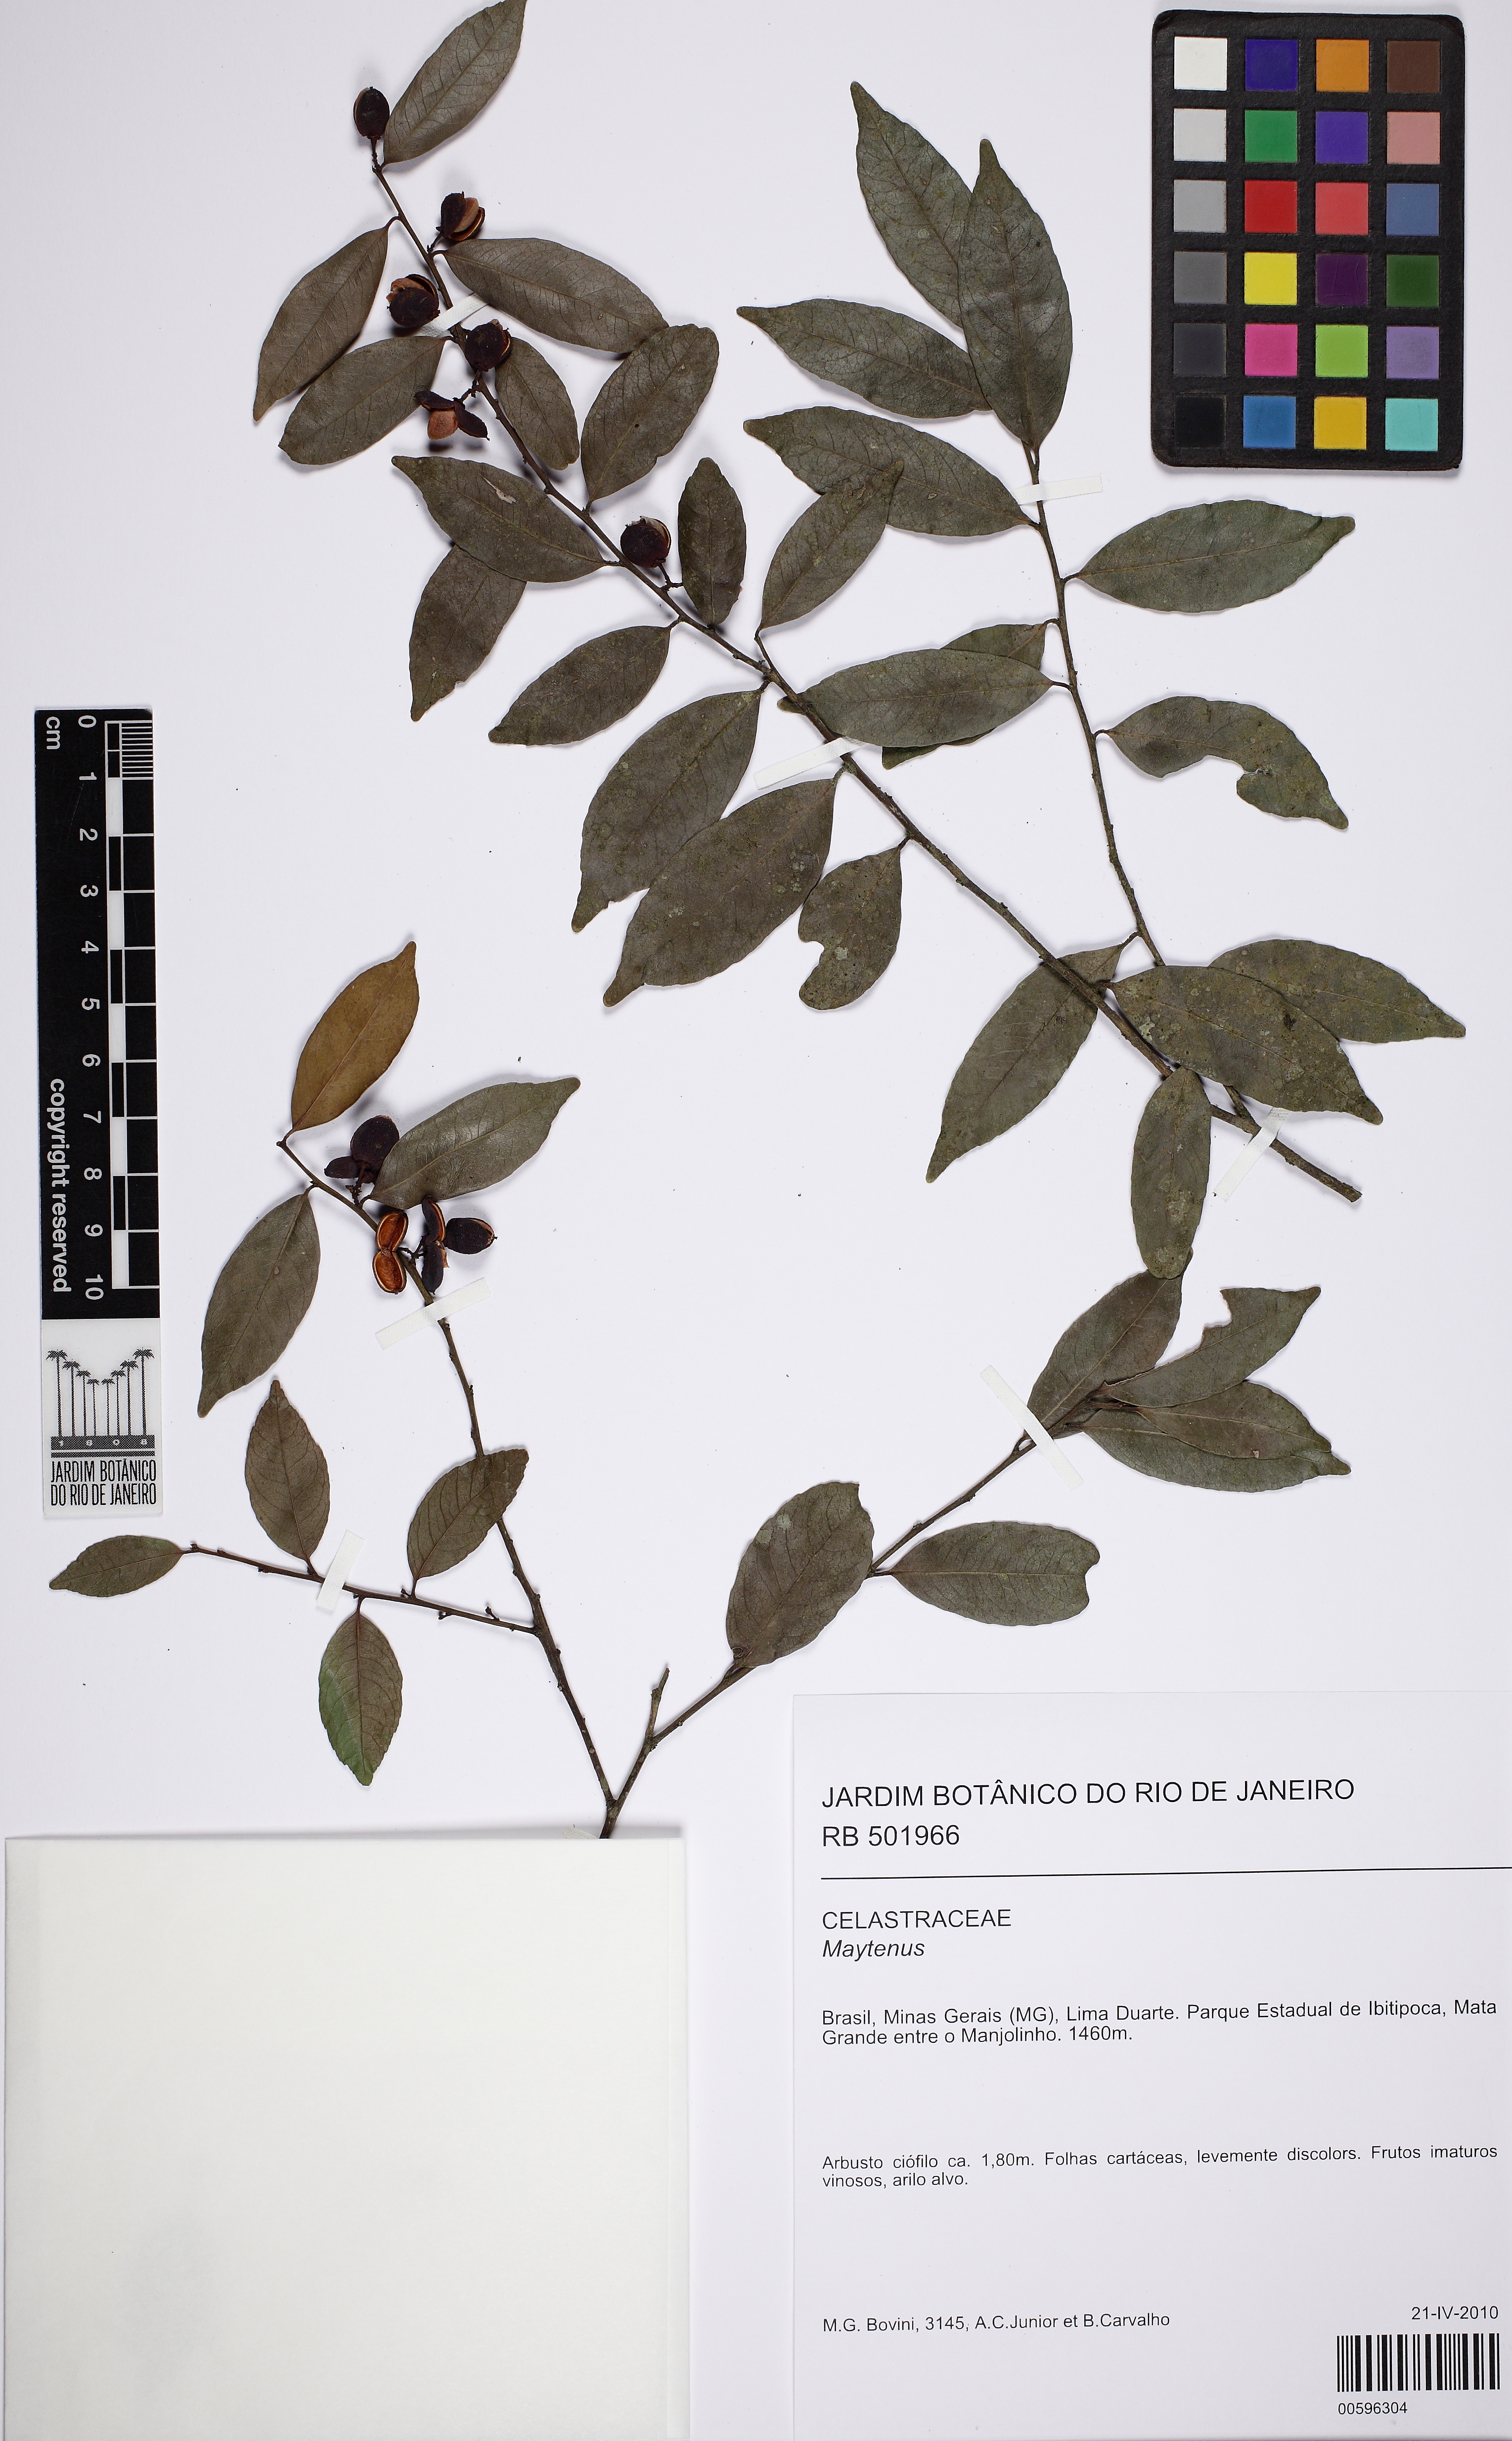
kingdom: Plantae
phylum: Tracheophyta
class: Magnoliopsida
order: Celastrales
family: Celastraceae
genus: Maytenus
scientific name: Maytenus
